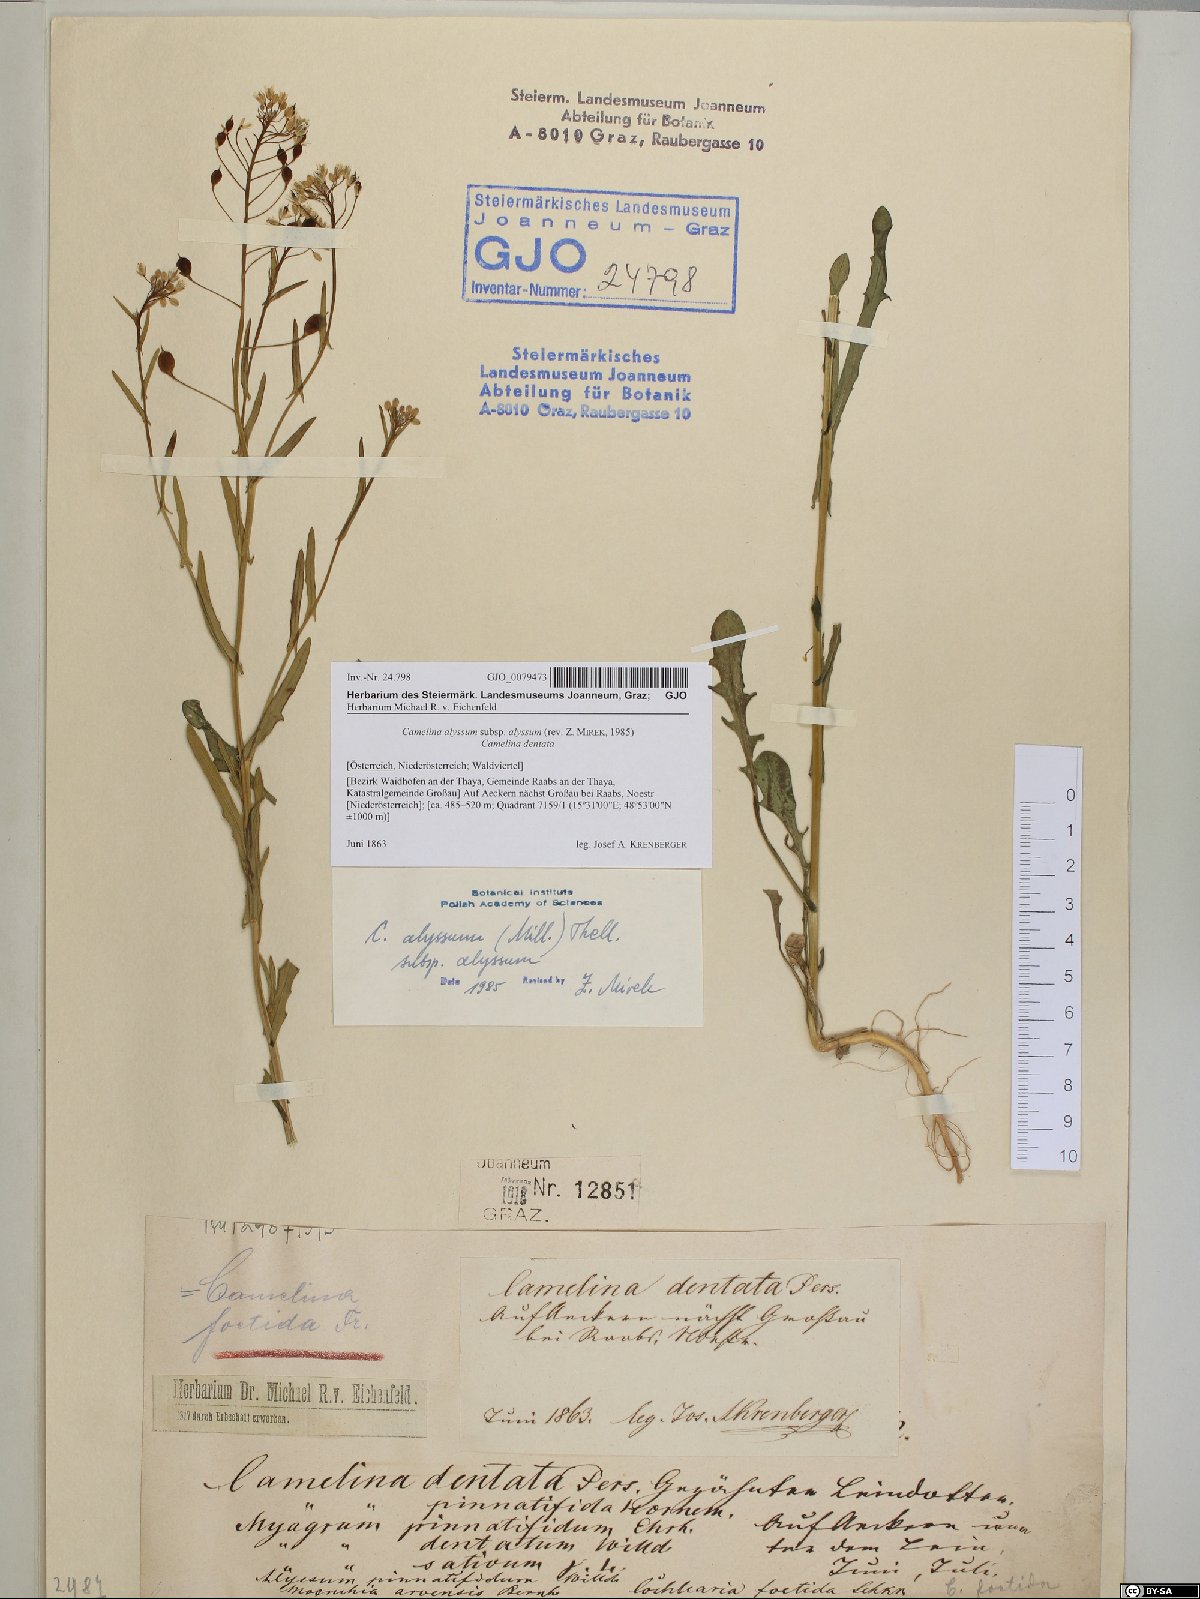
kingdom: Plantae
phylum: Tracheophyta
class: Magnoliopsida
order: Brassicales
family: Brassicaceae
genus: Camelina
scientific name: Camelina alyssum
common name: Gold-of-pleasure
